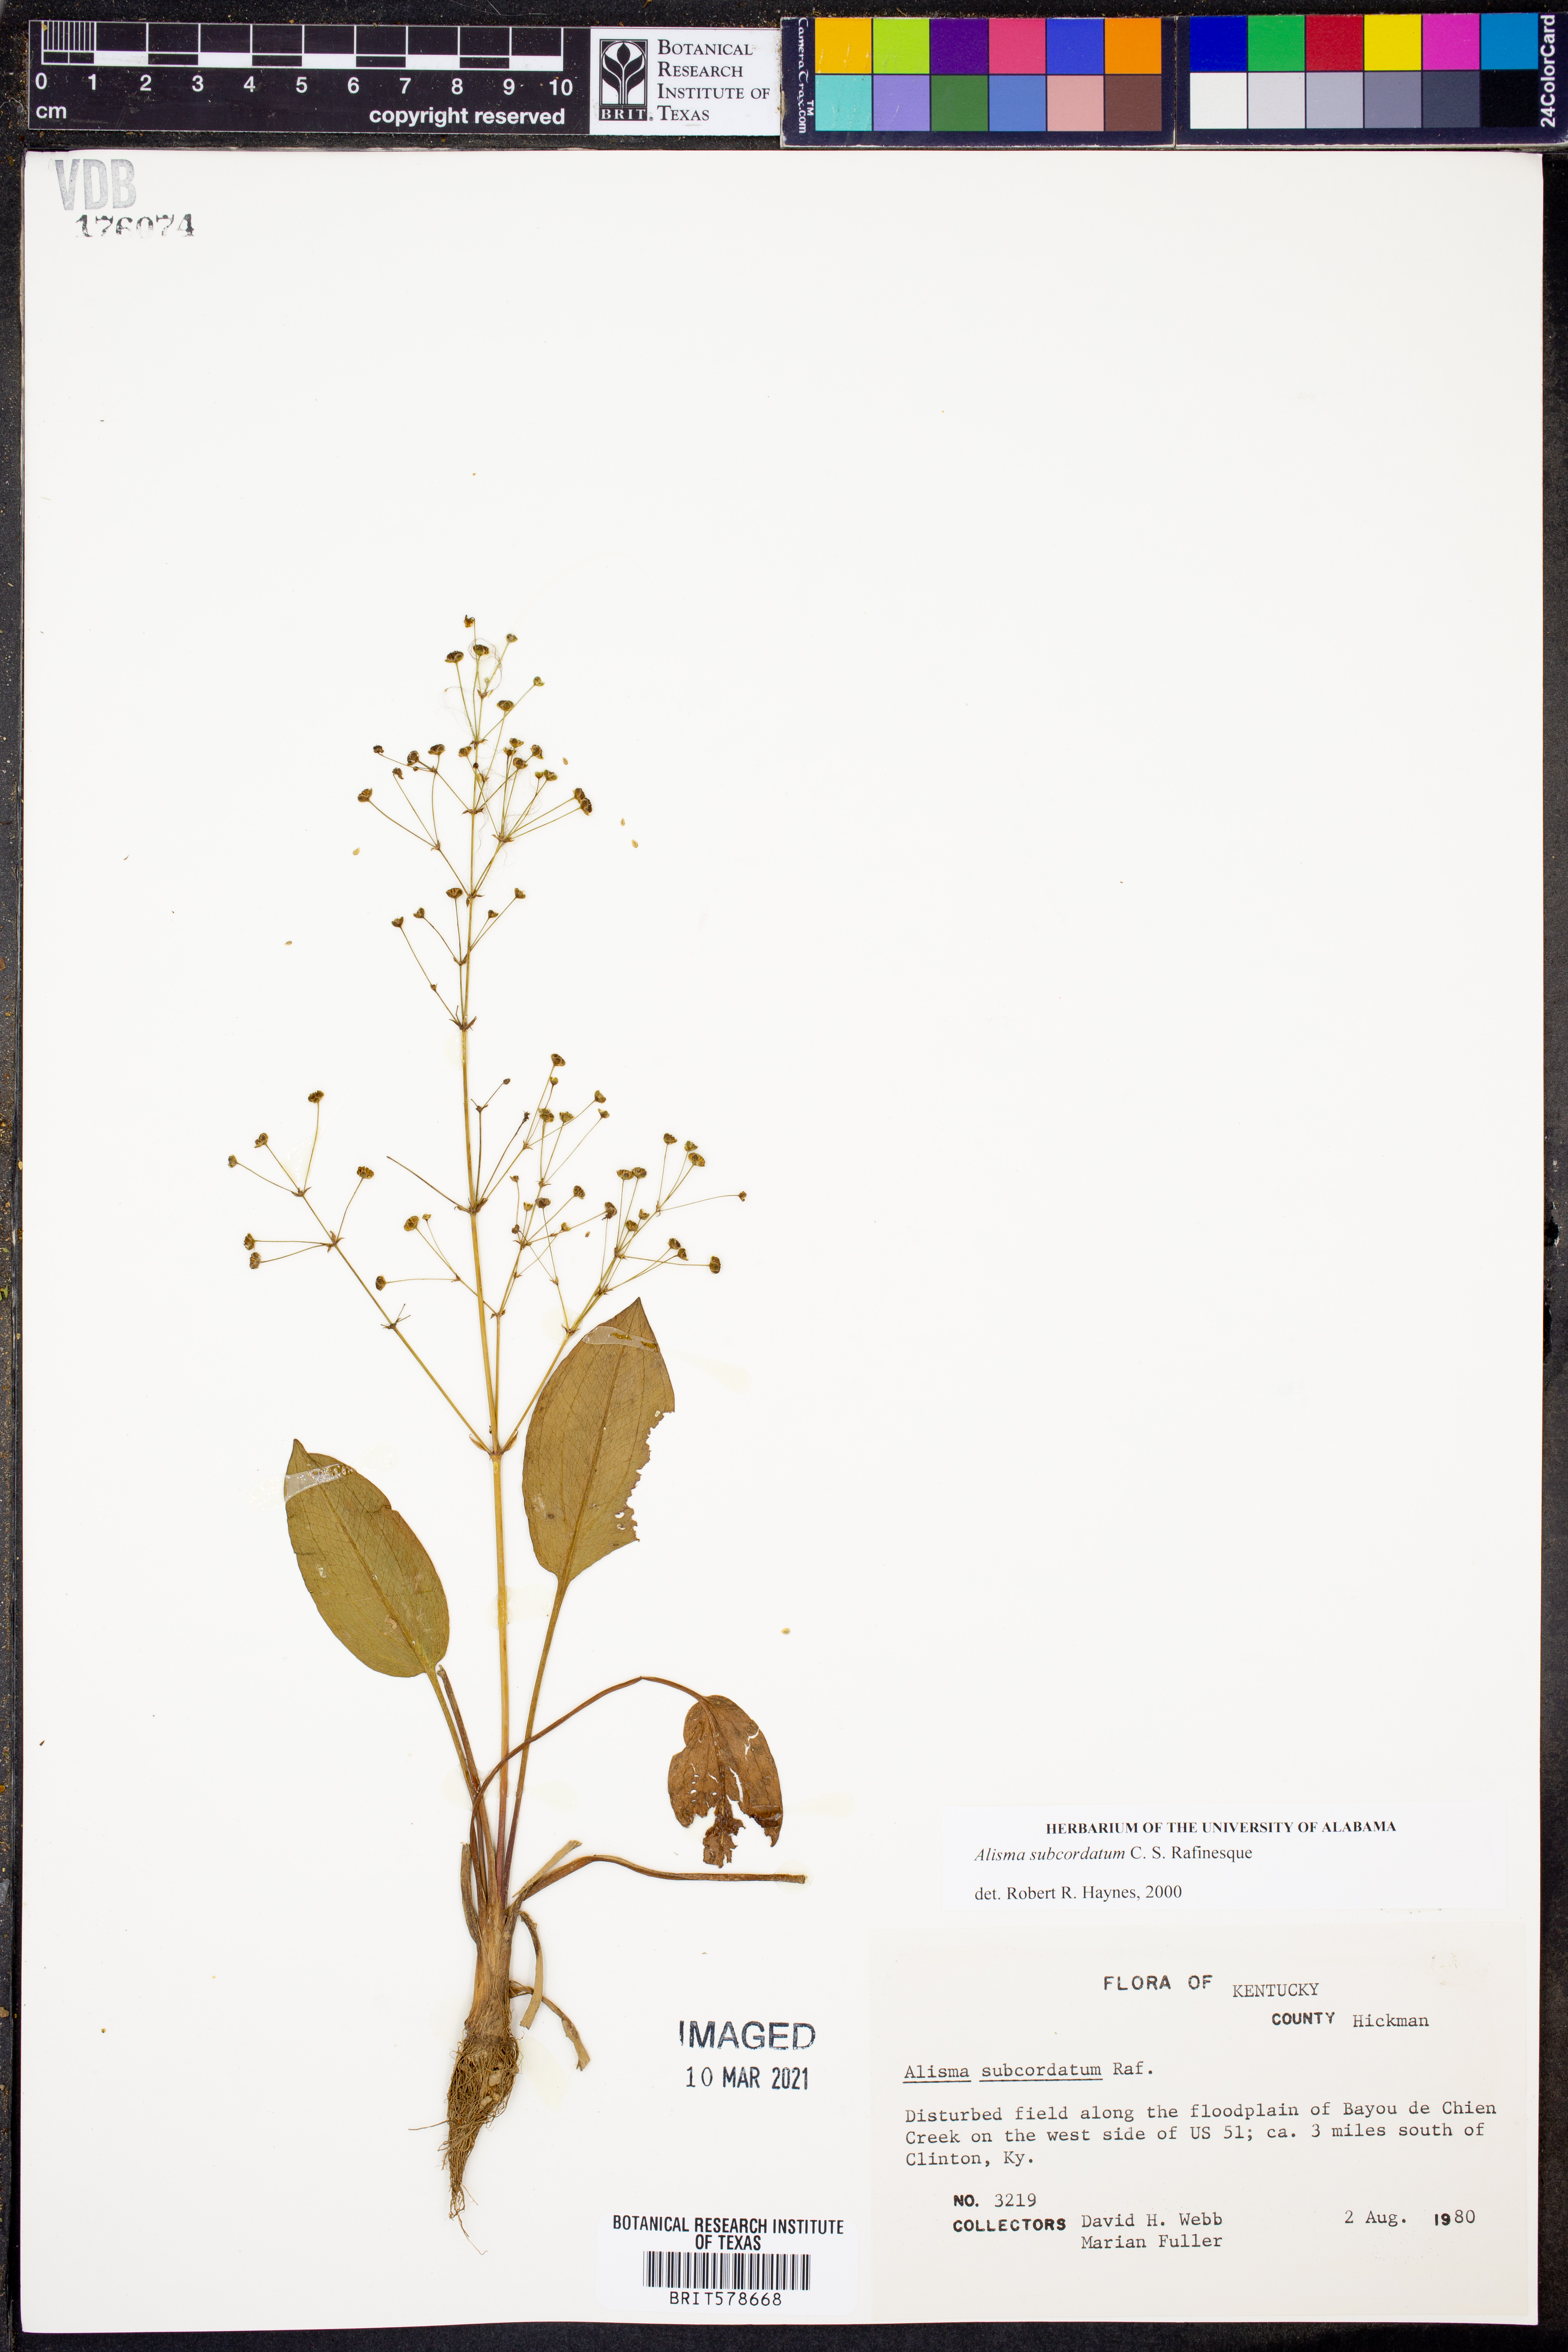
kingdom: Plantae
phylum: Tracheophyta
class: Liliopsida
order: Alismatales
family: Alismataceae
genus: Alisma
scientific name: Alisma subcordatum
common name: Southern water-plantain
